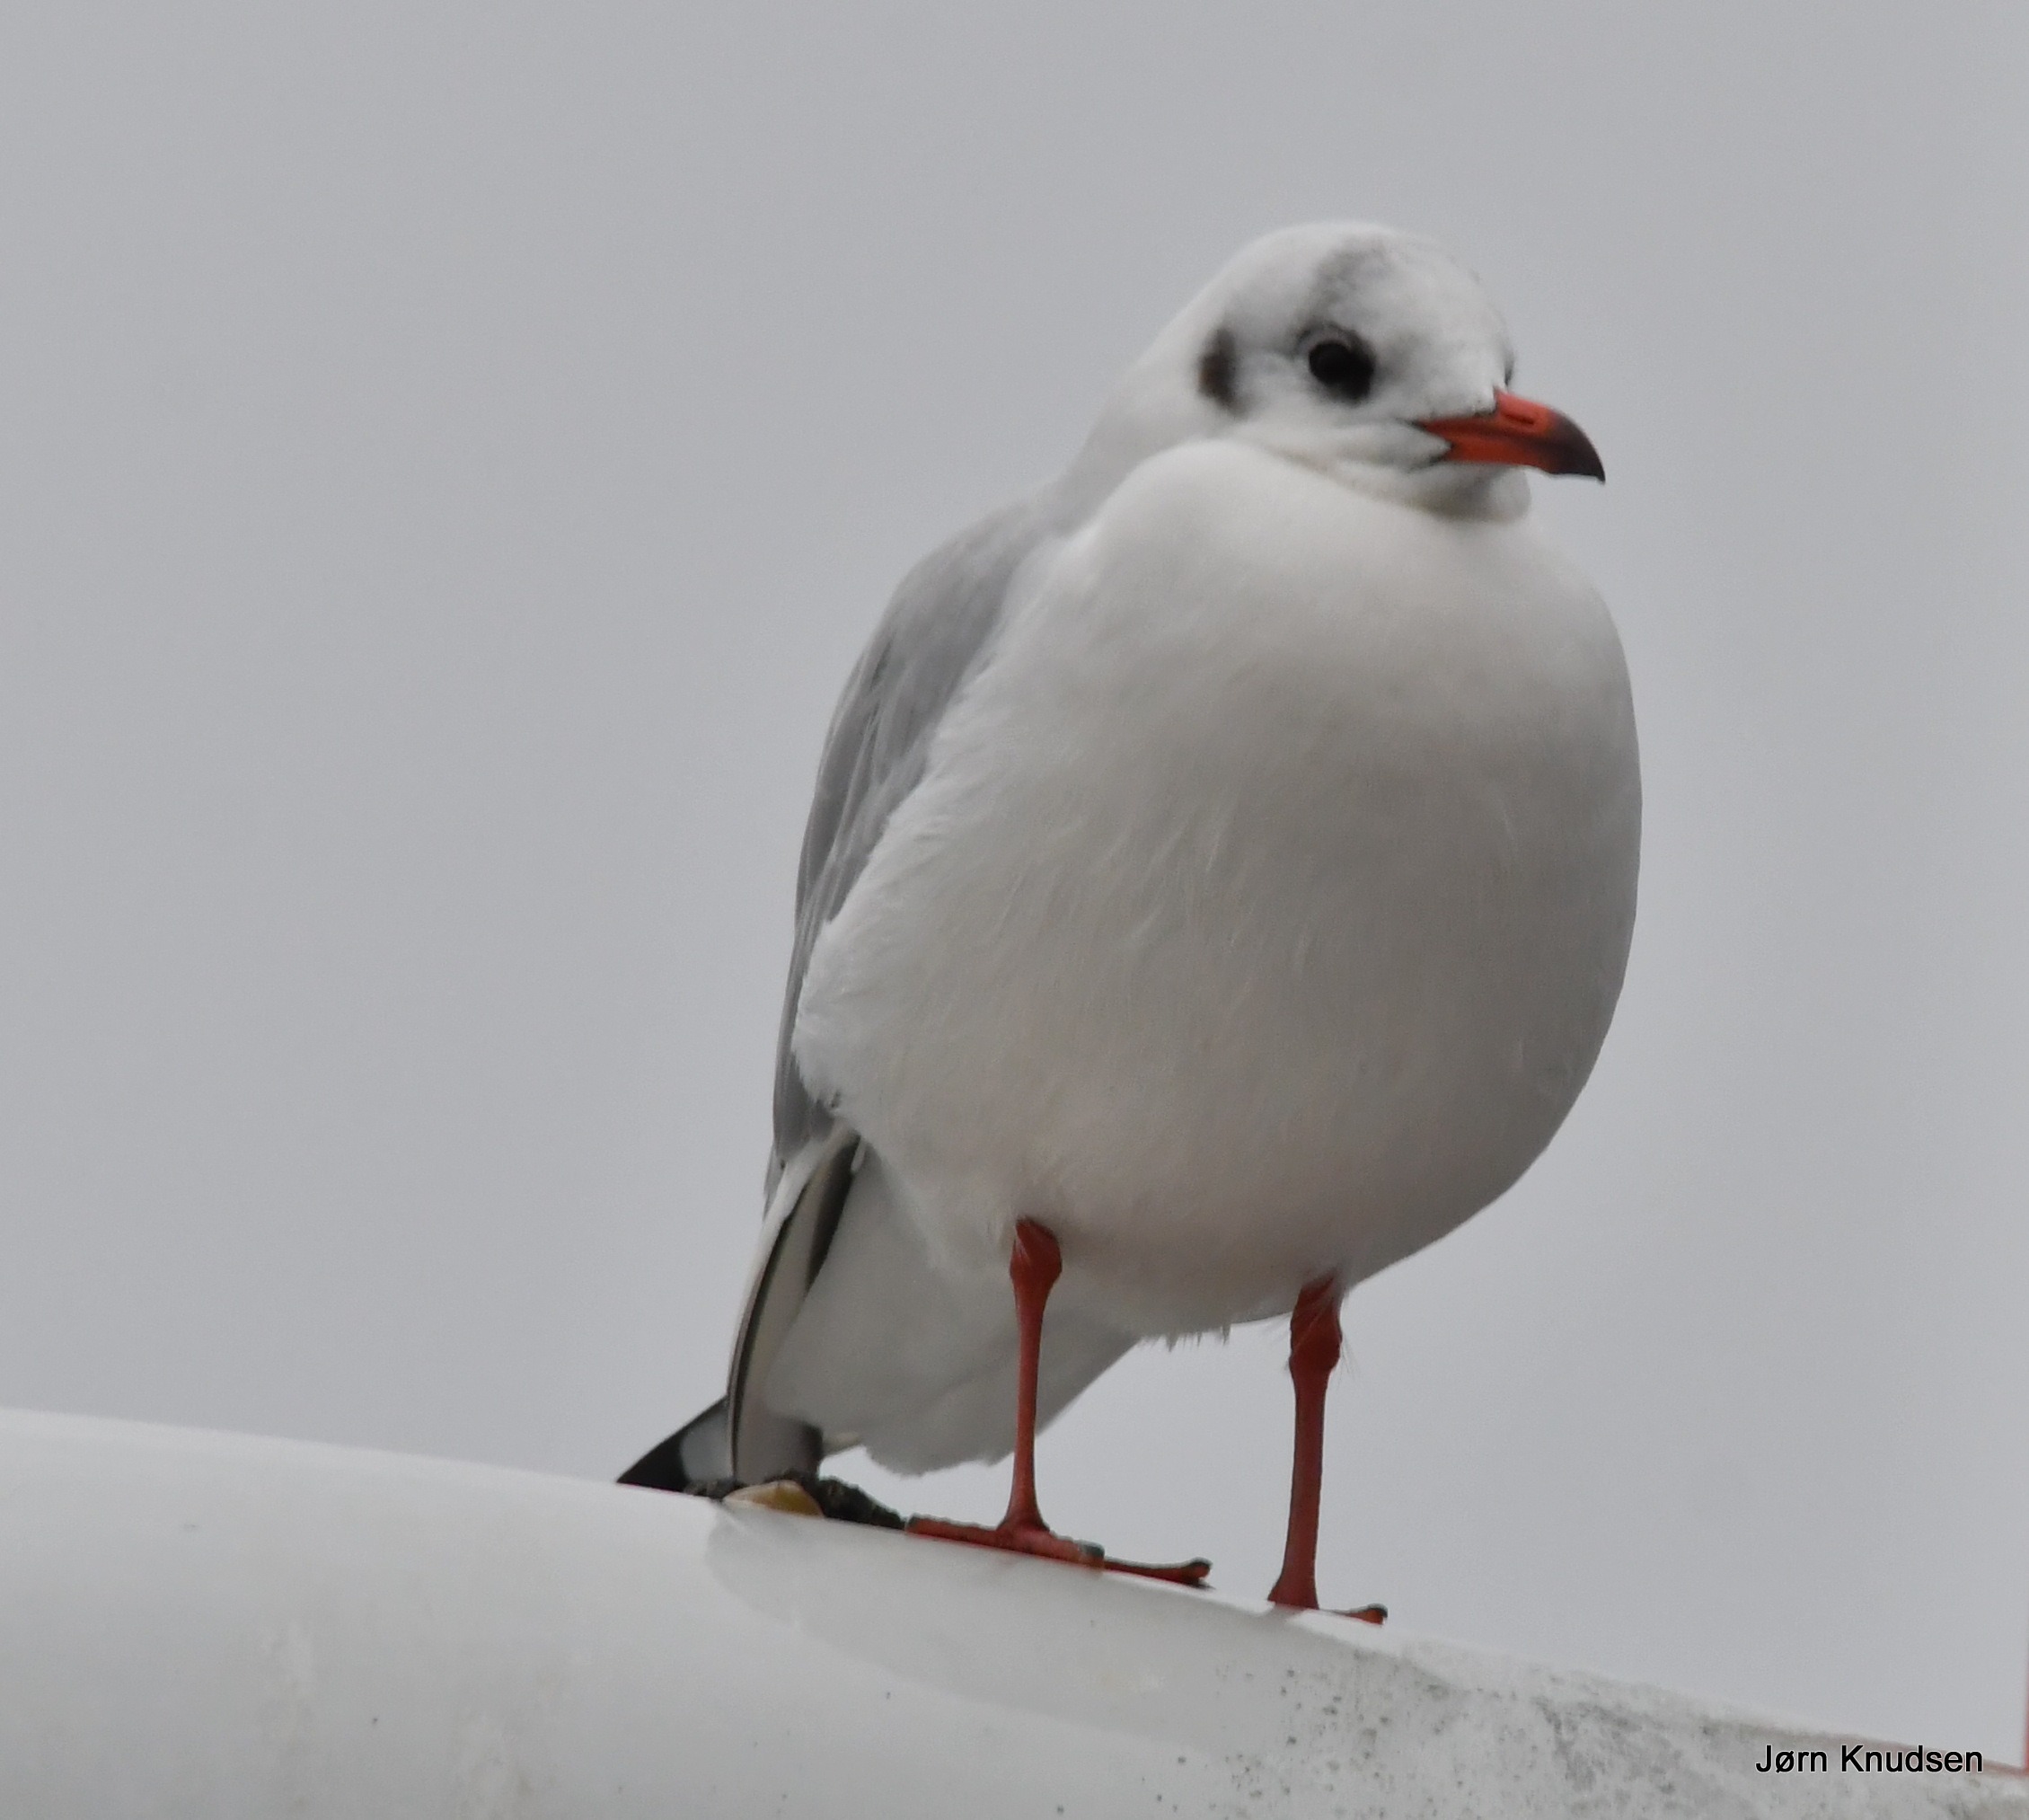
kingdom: Animalia
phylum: Chordata
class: Aves
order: Charadriiformes
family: Laridae
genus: Chroicocephalus
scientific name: Chroicocephalus ridibundus
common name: Hættemåge
